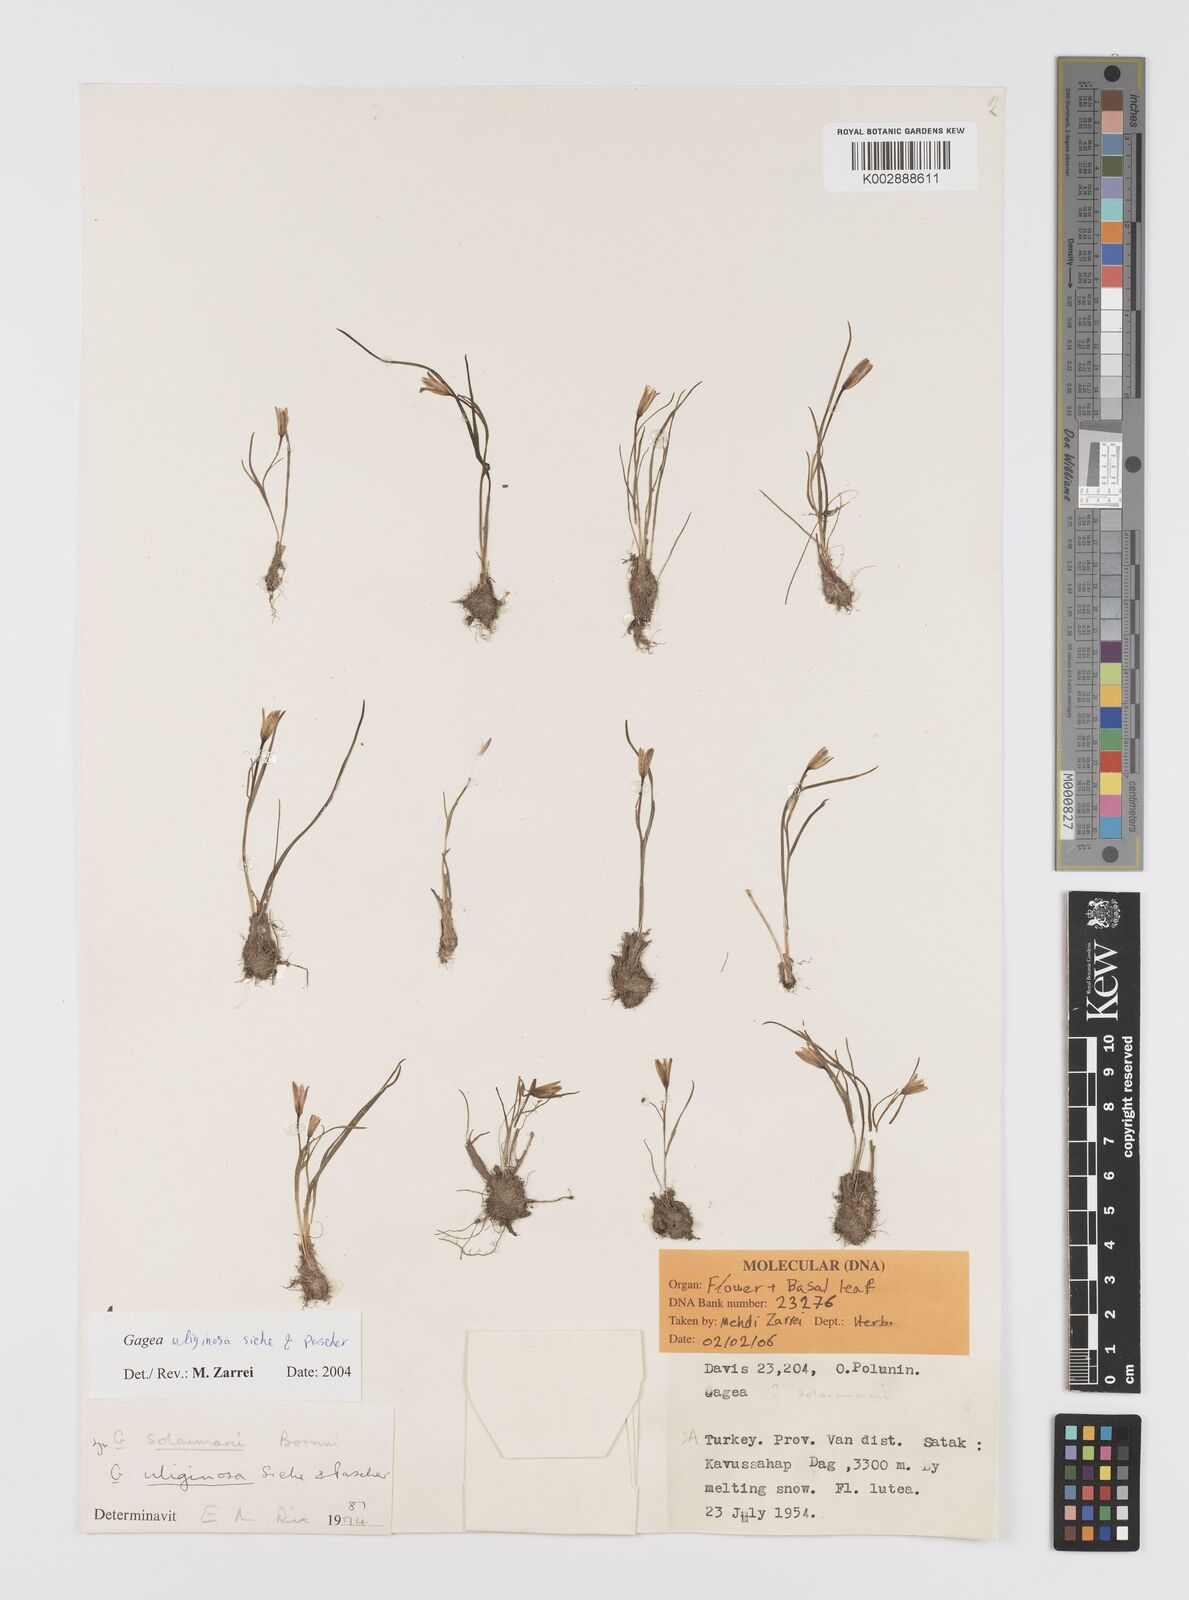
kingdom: Plantae
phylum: Tracheophyta
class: Liliopsida
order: Liliales
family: Liliaceae
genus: Gagea
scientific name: Gagea uliginosa
